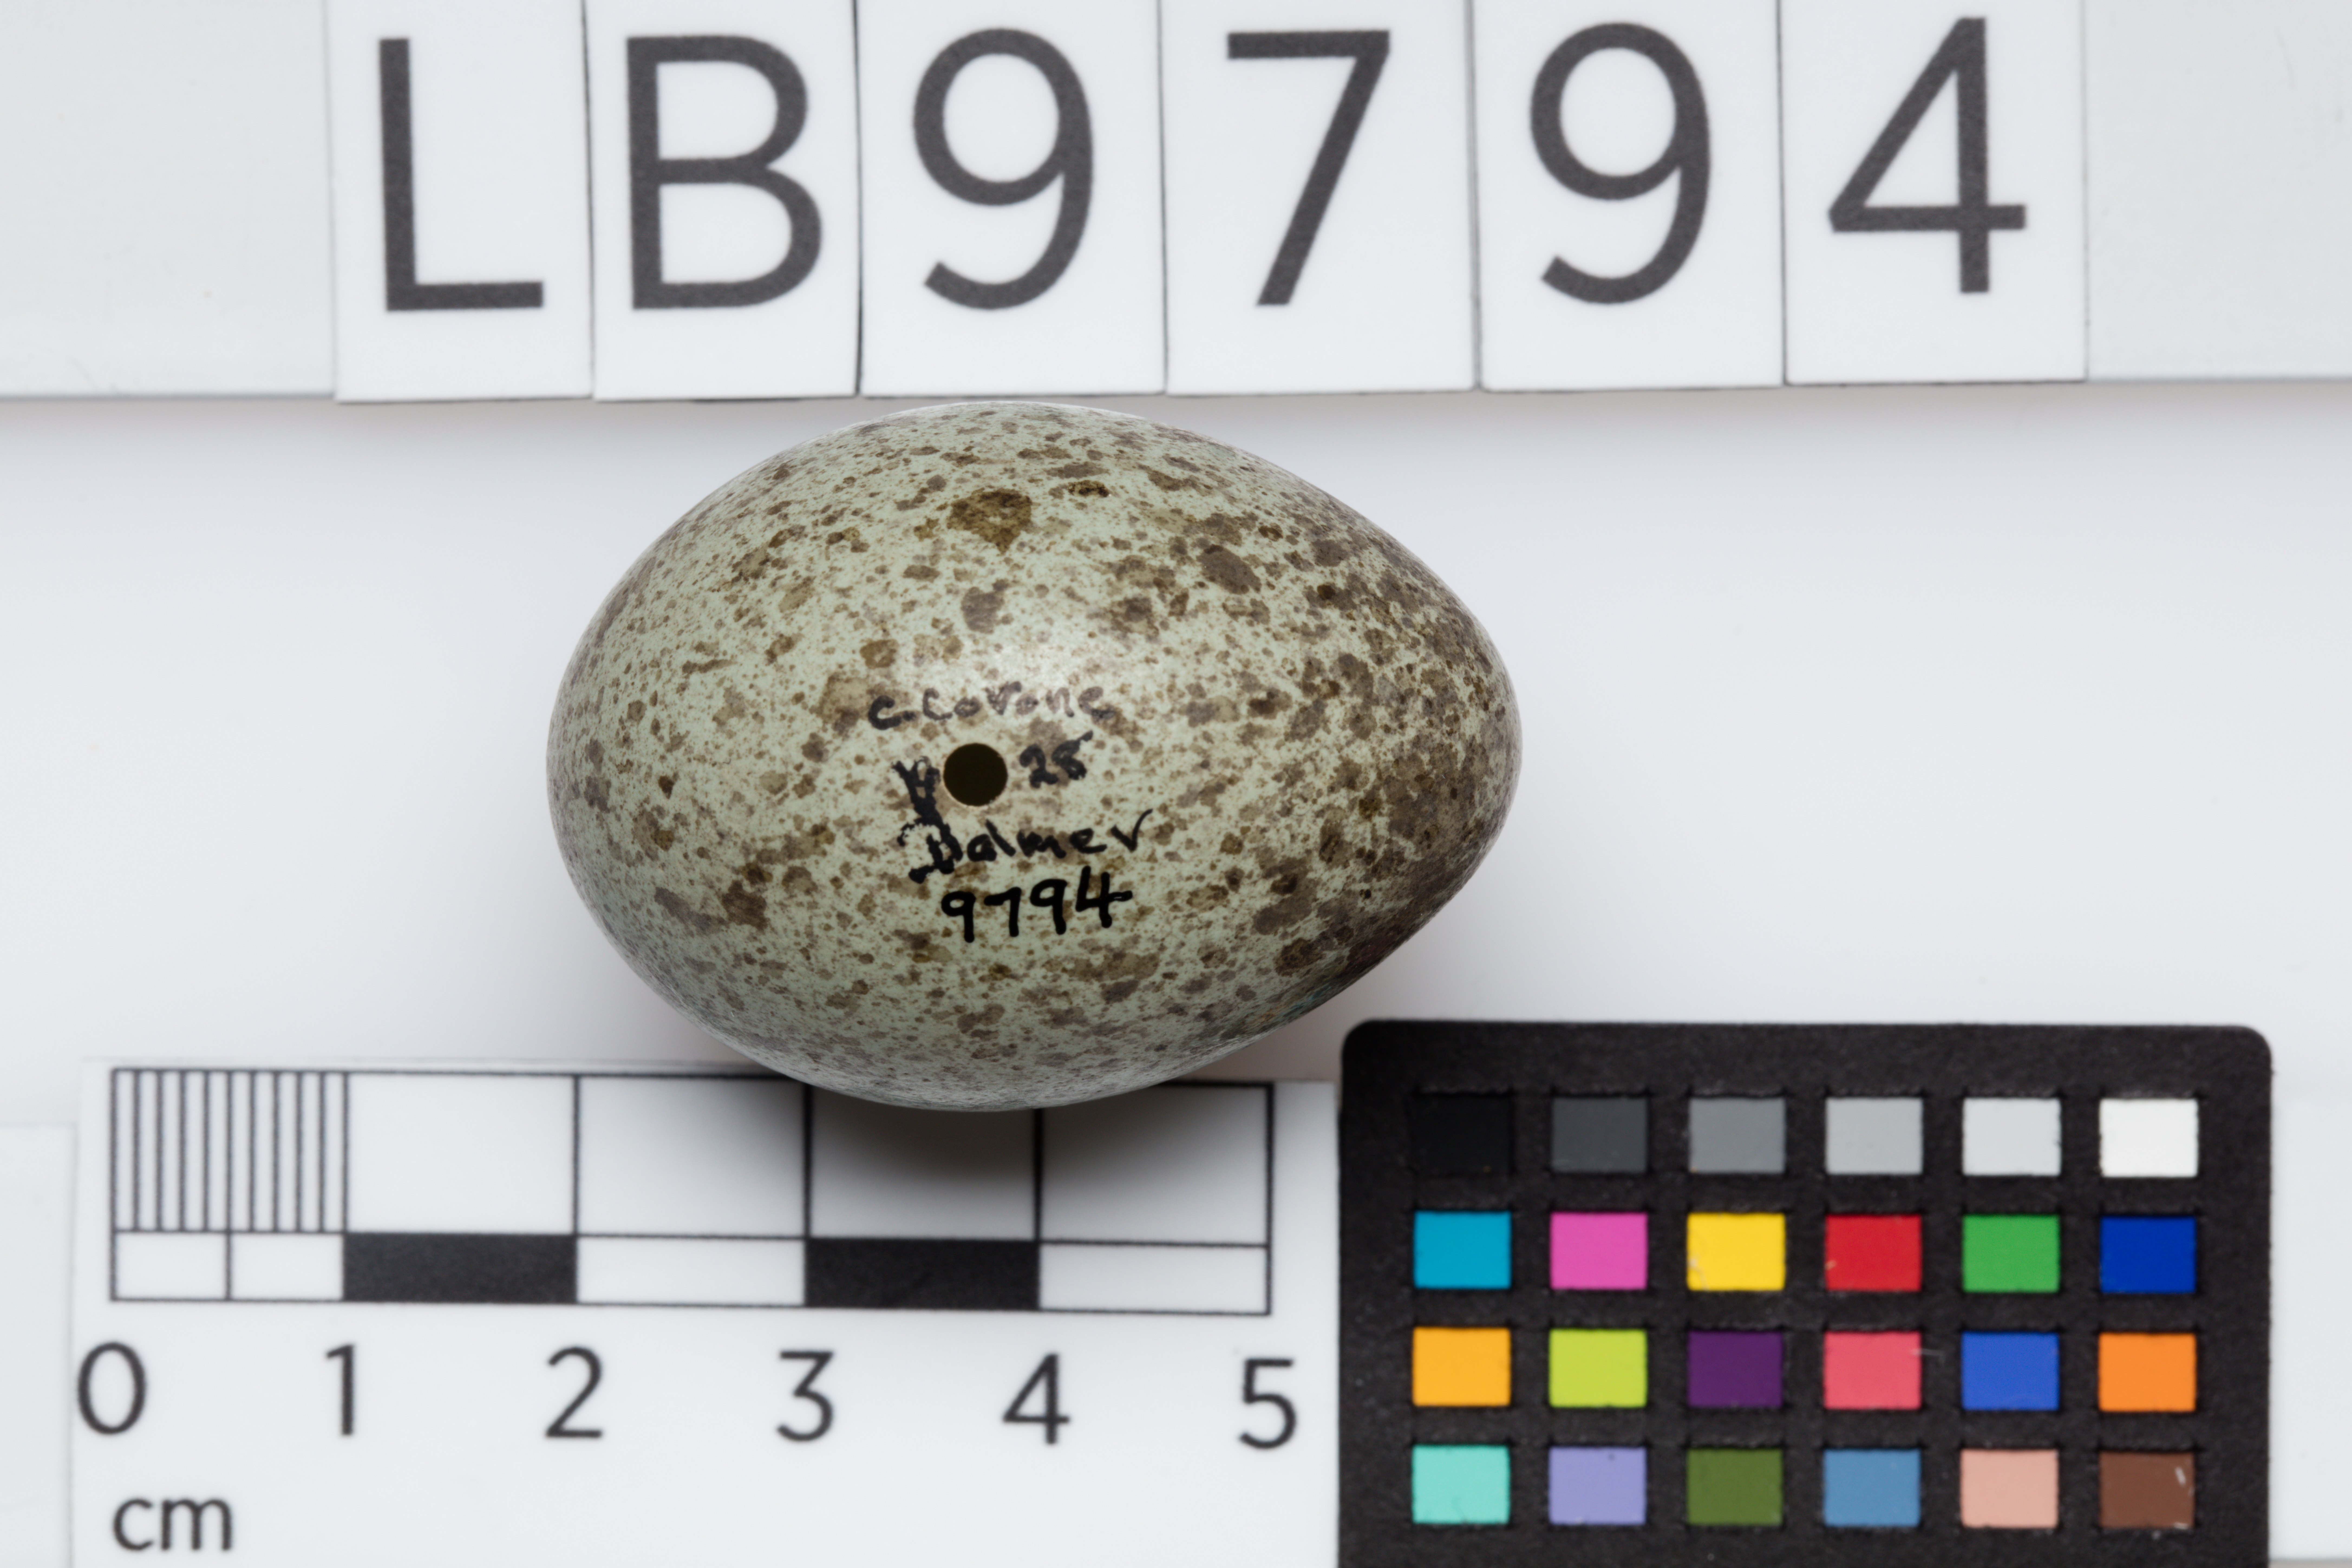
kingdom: Animalia
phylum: Chordata
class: Aves
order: Passeriformes
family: Corvidae
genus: Corvus
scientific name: Corvus corone
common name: Carrion crow
